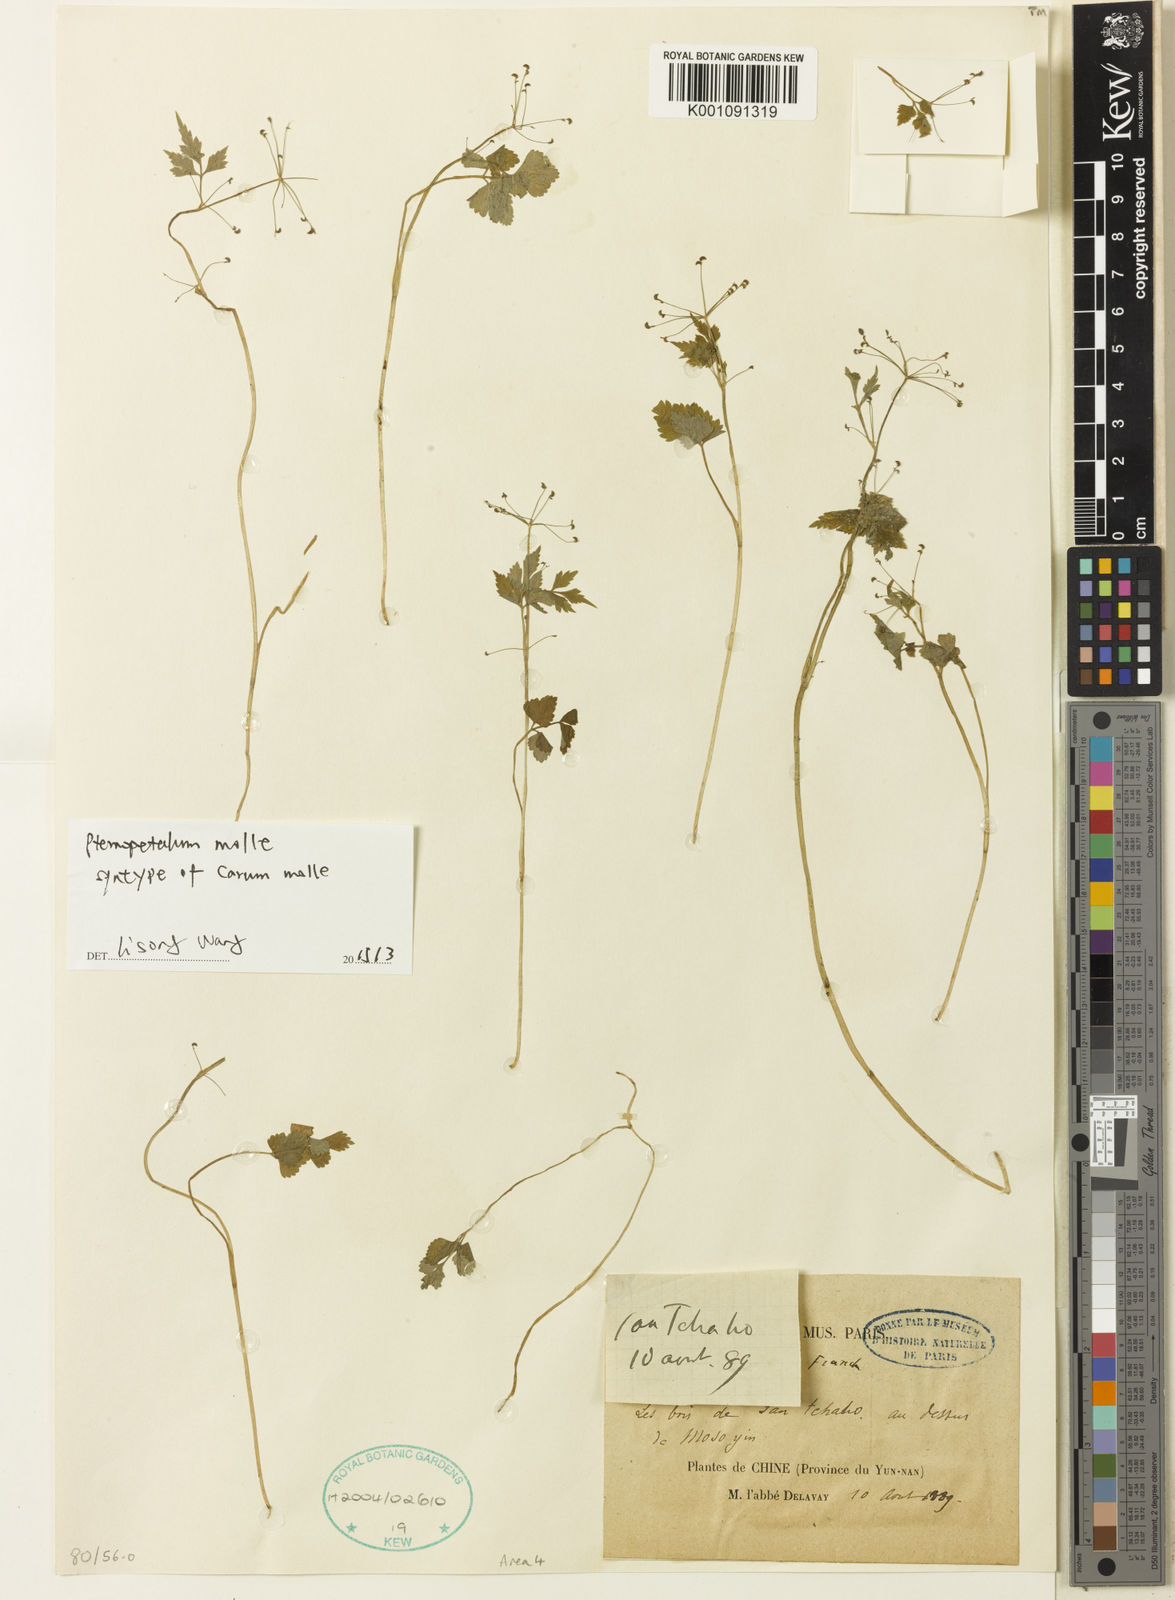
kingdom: Plantae
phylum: Tracheophyta
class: Magnoliopsida
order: Apiales
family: Apiaceae
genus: Pternopetalum
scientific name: Pternopetalum molle
